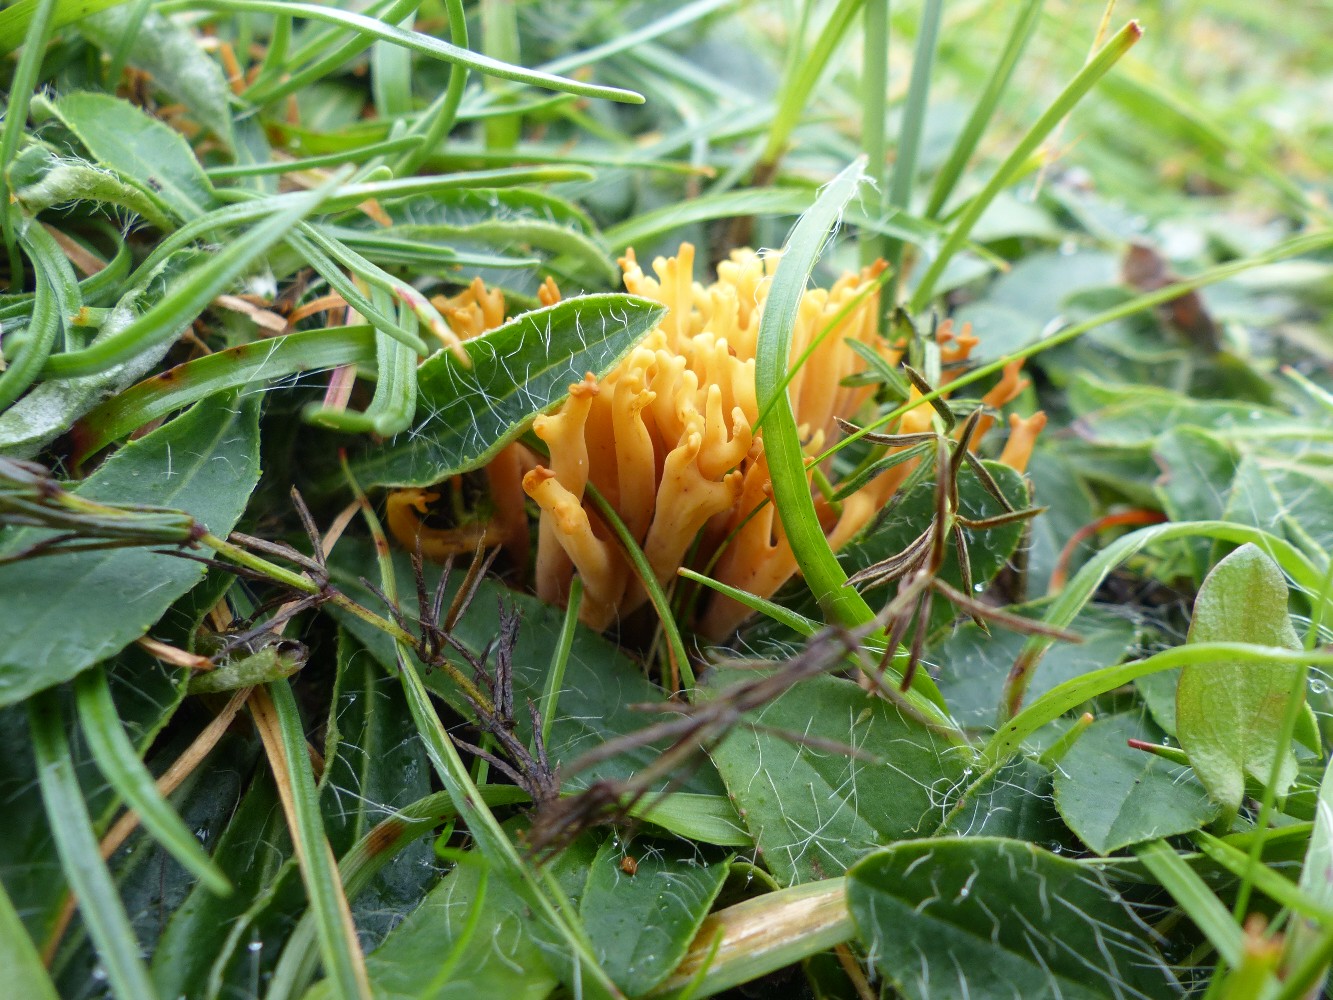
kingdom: Fungi
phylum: Basidiomycota
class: Agaricomycetes
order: Agaricales
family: Clavariaceae
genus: Clavulinopsis
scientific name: Clavulinopsis corniculata
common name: eng-køllesvamp
